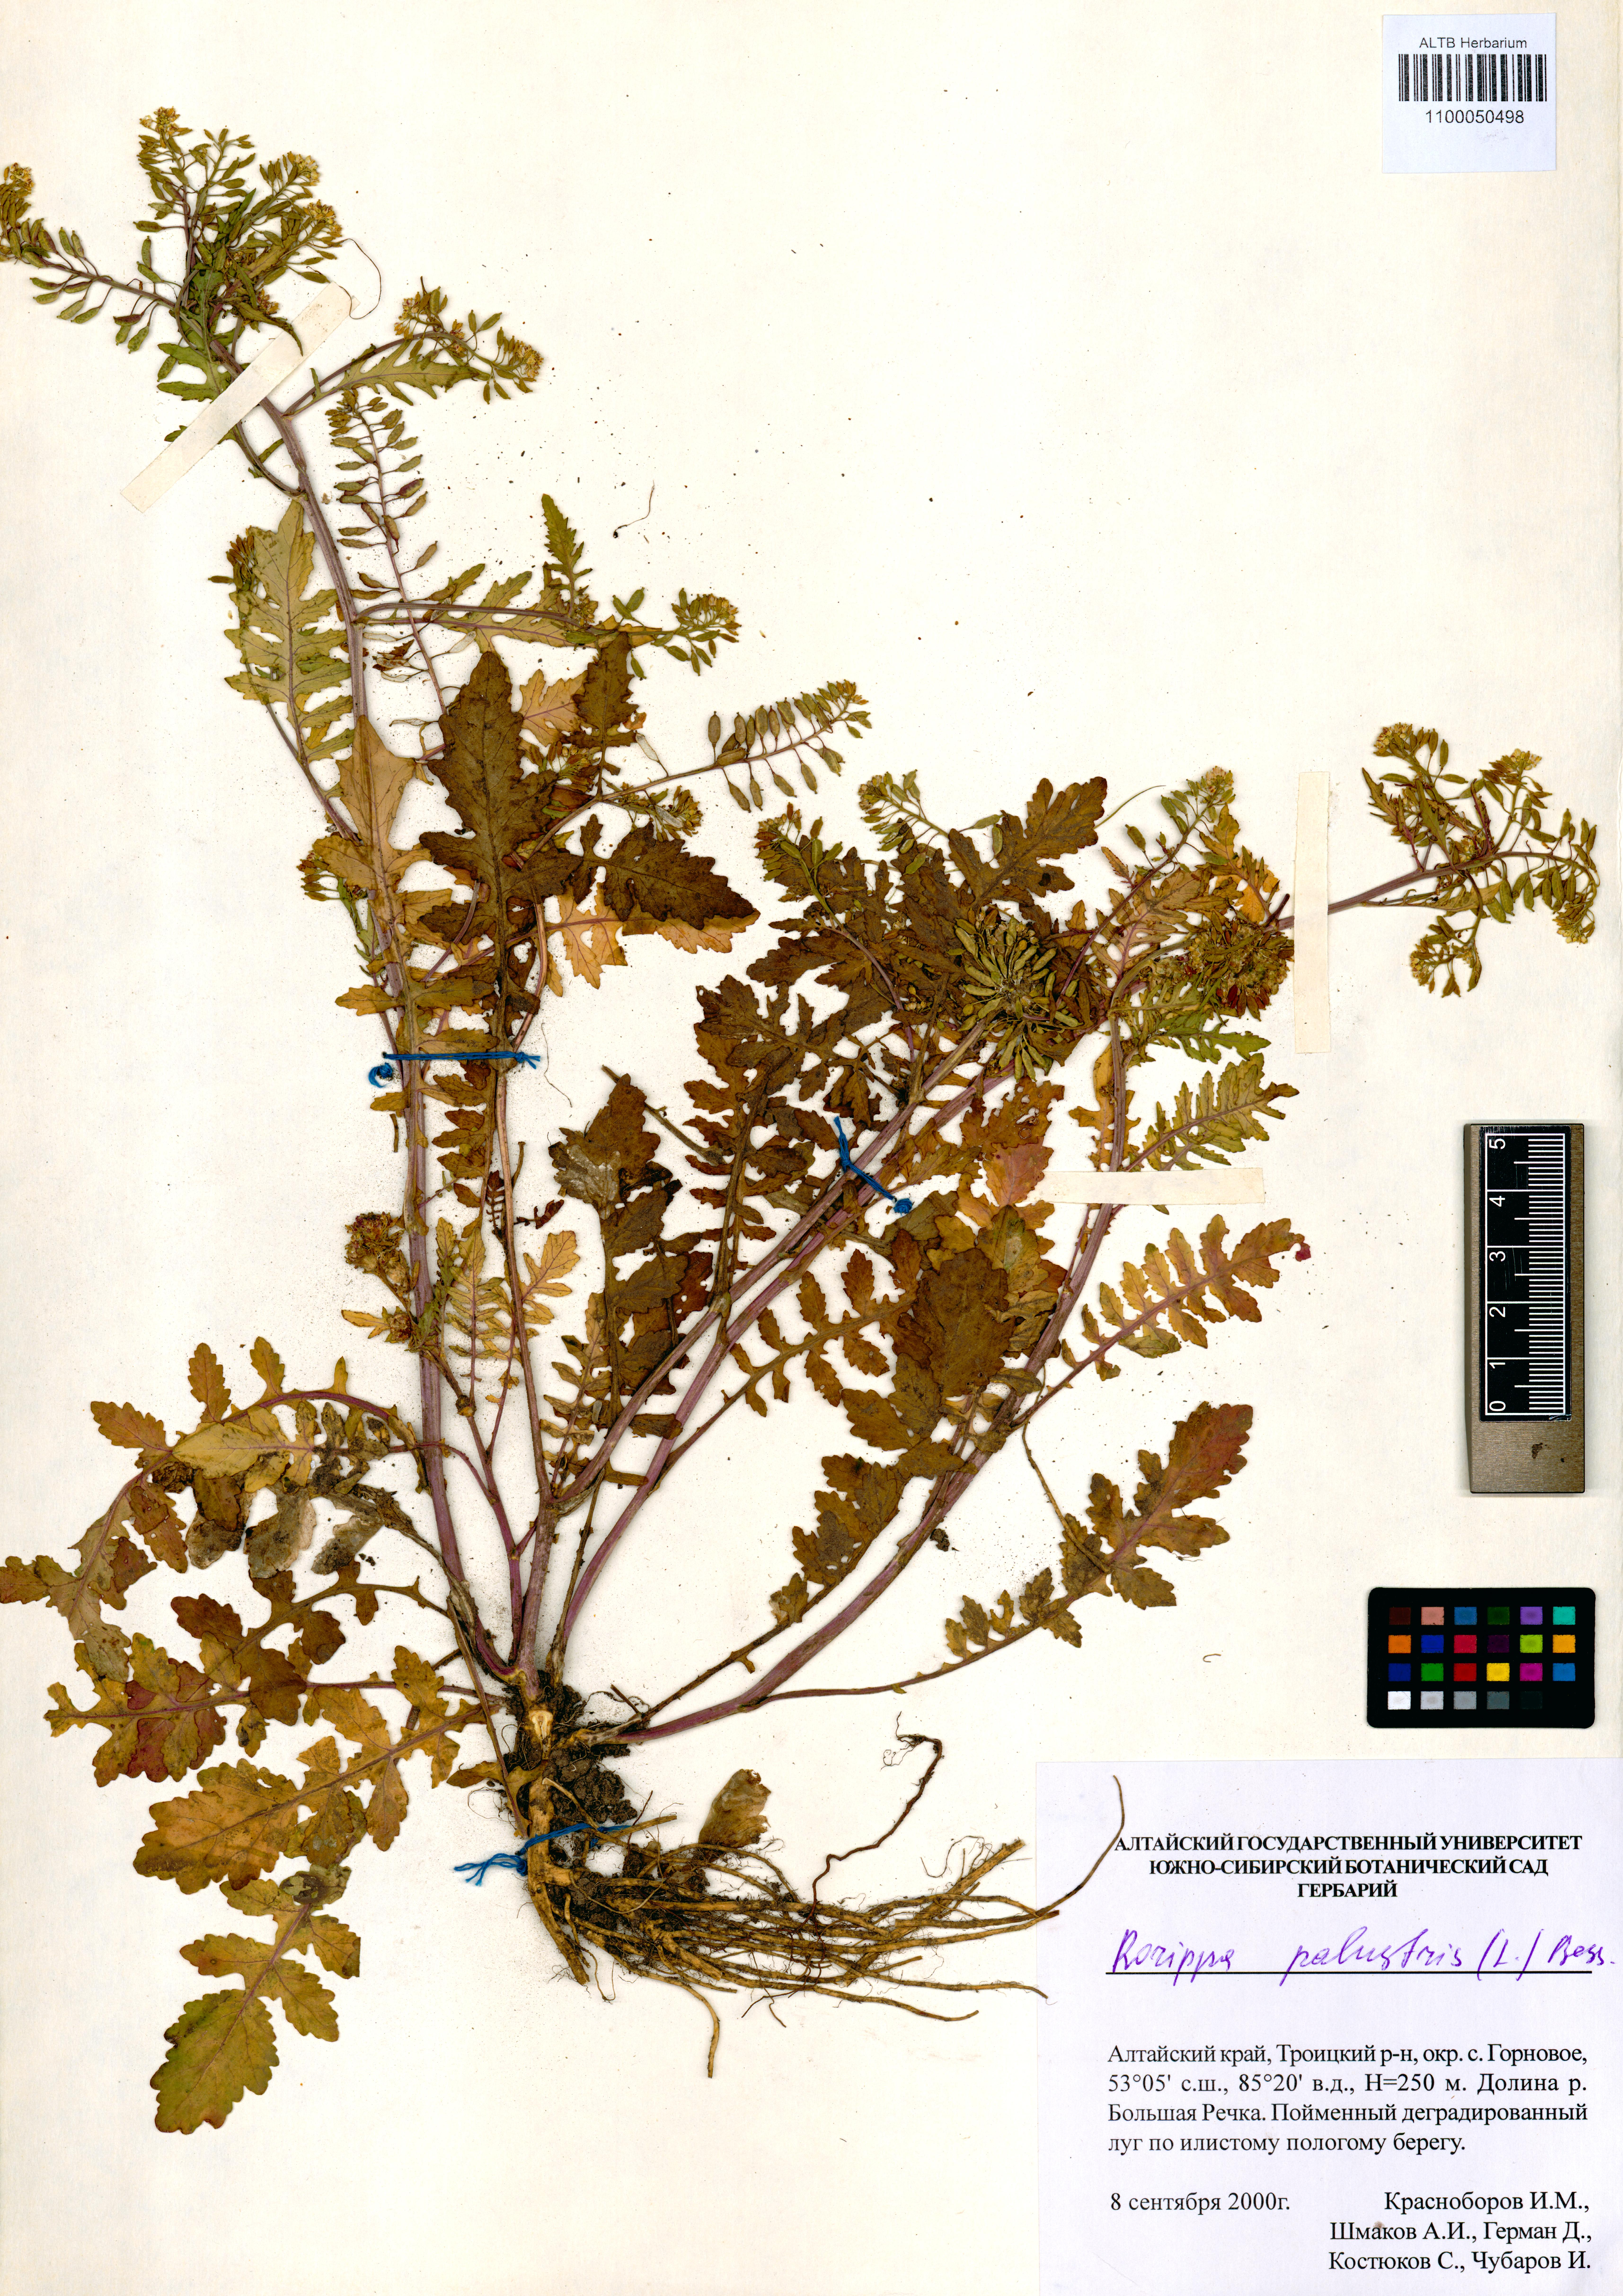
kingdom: Plantae
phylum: Tracheophyta
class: Magnoliopsida
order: Brassicales
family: Brassicaceae
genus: Rorippa
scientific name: Rorippa palustris
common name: Marsh yellow-cress
